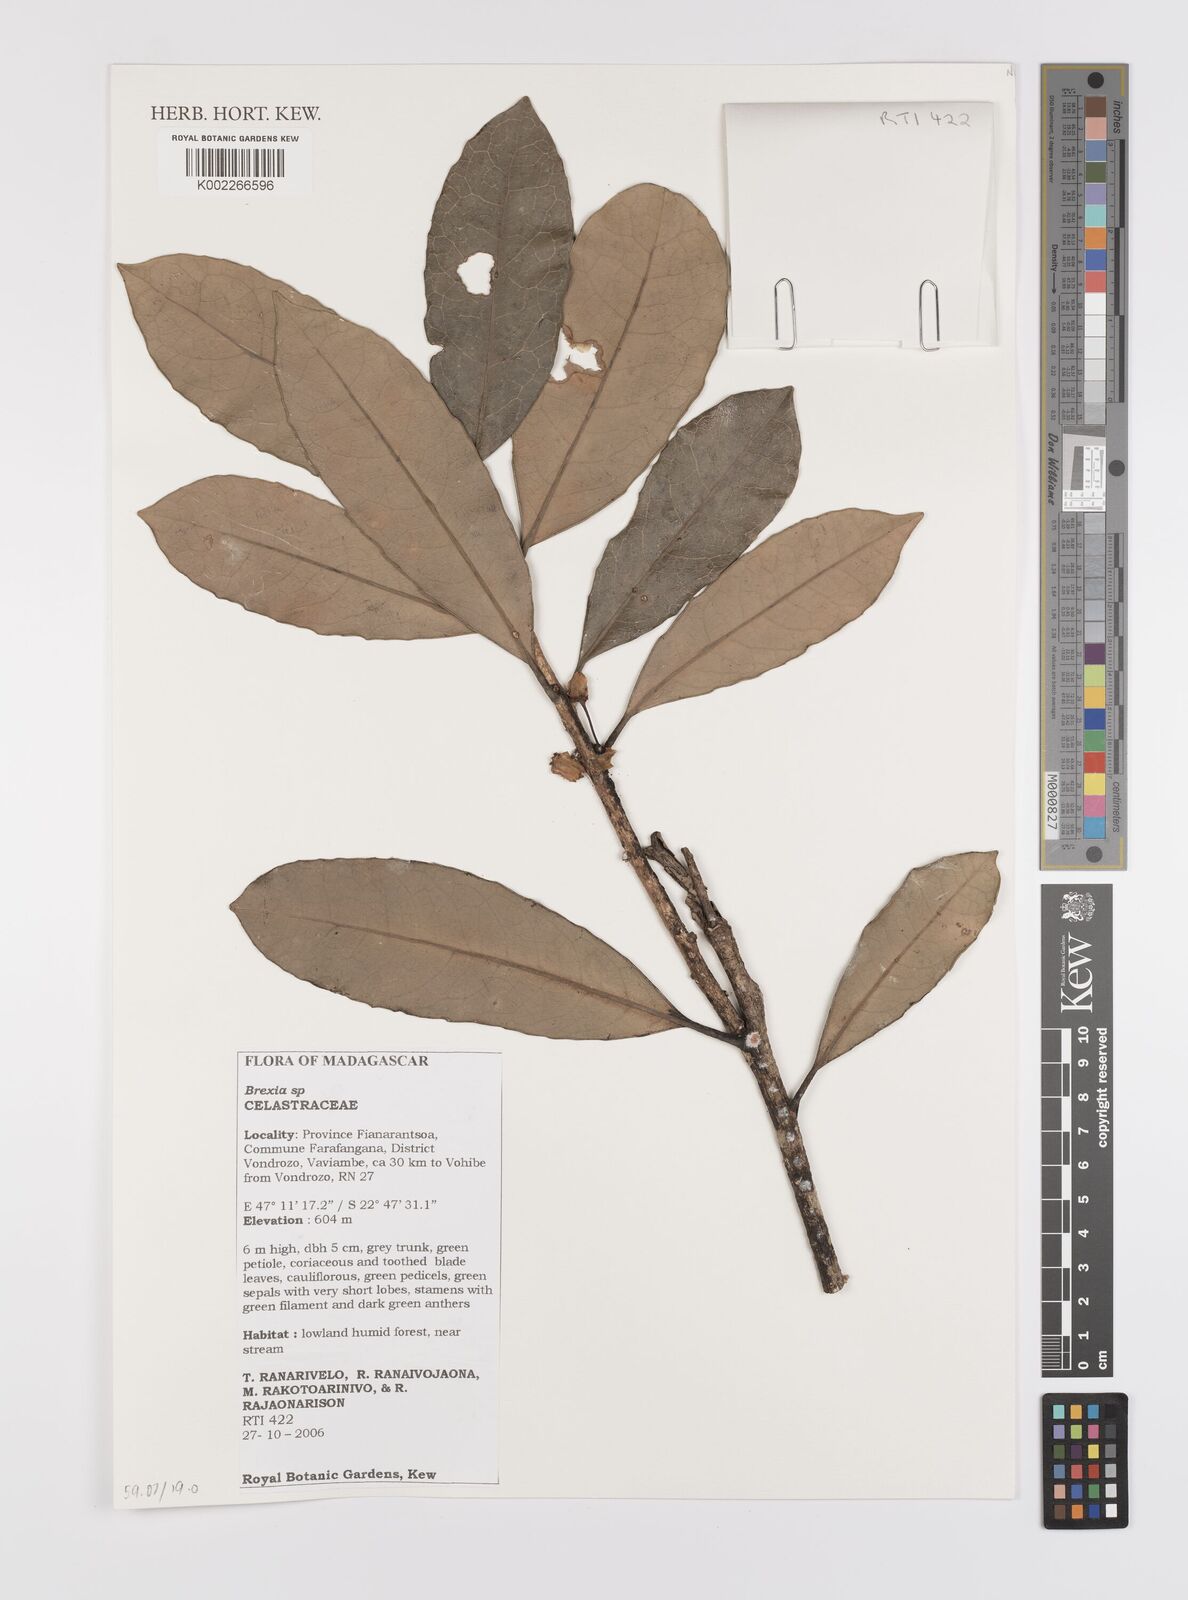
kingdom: Plantae
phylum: Tracheophyta
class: Magnoliopsida
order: Celastrales
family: Celastraceae
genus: Brexia
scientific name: Brexia
